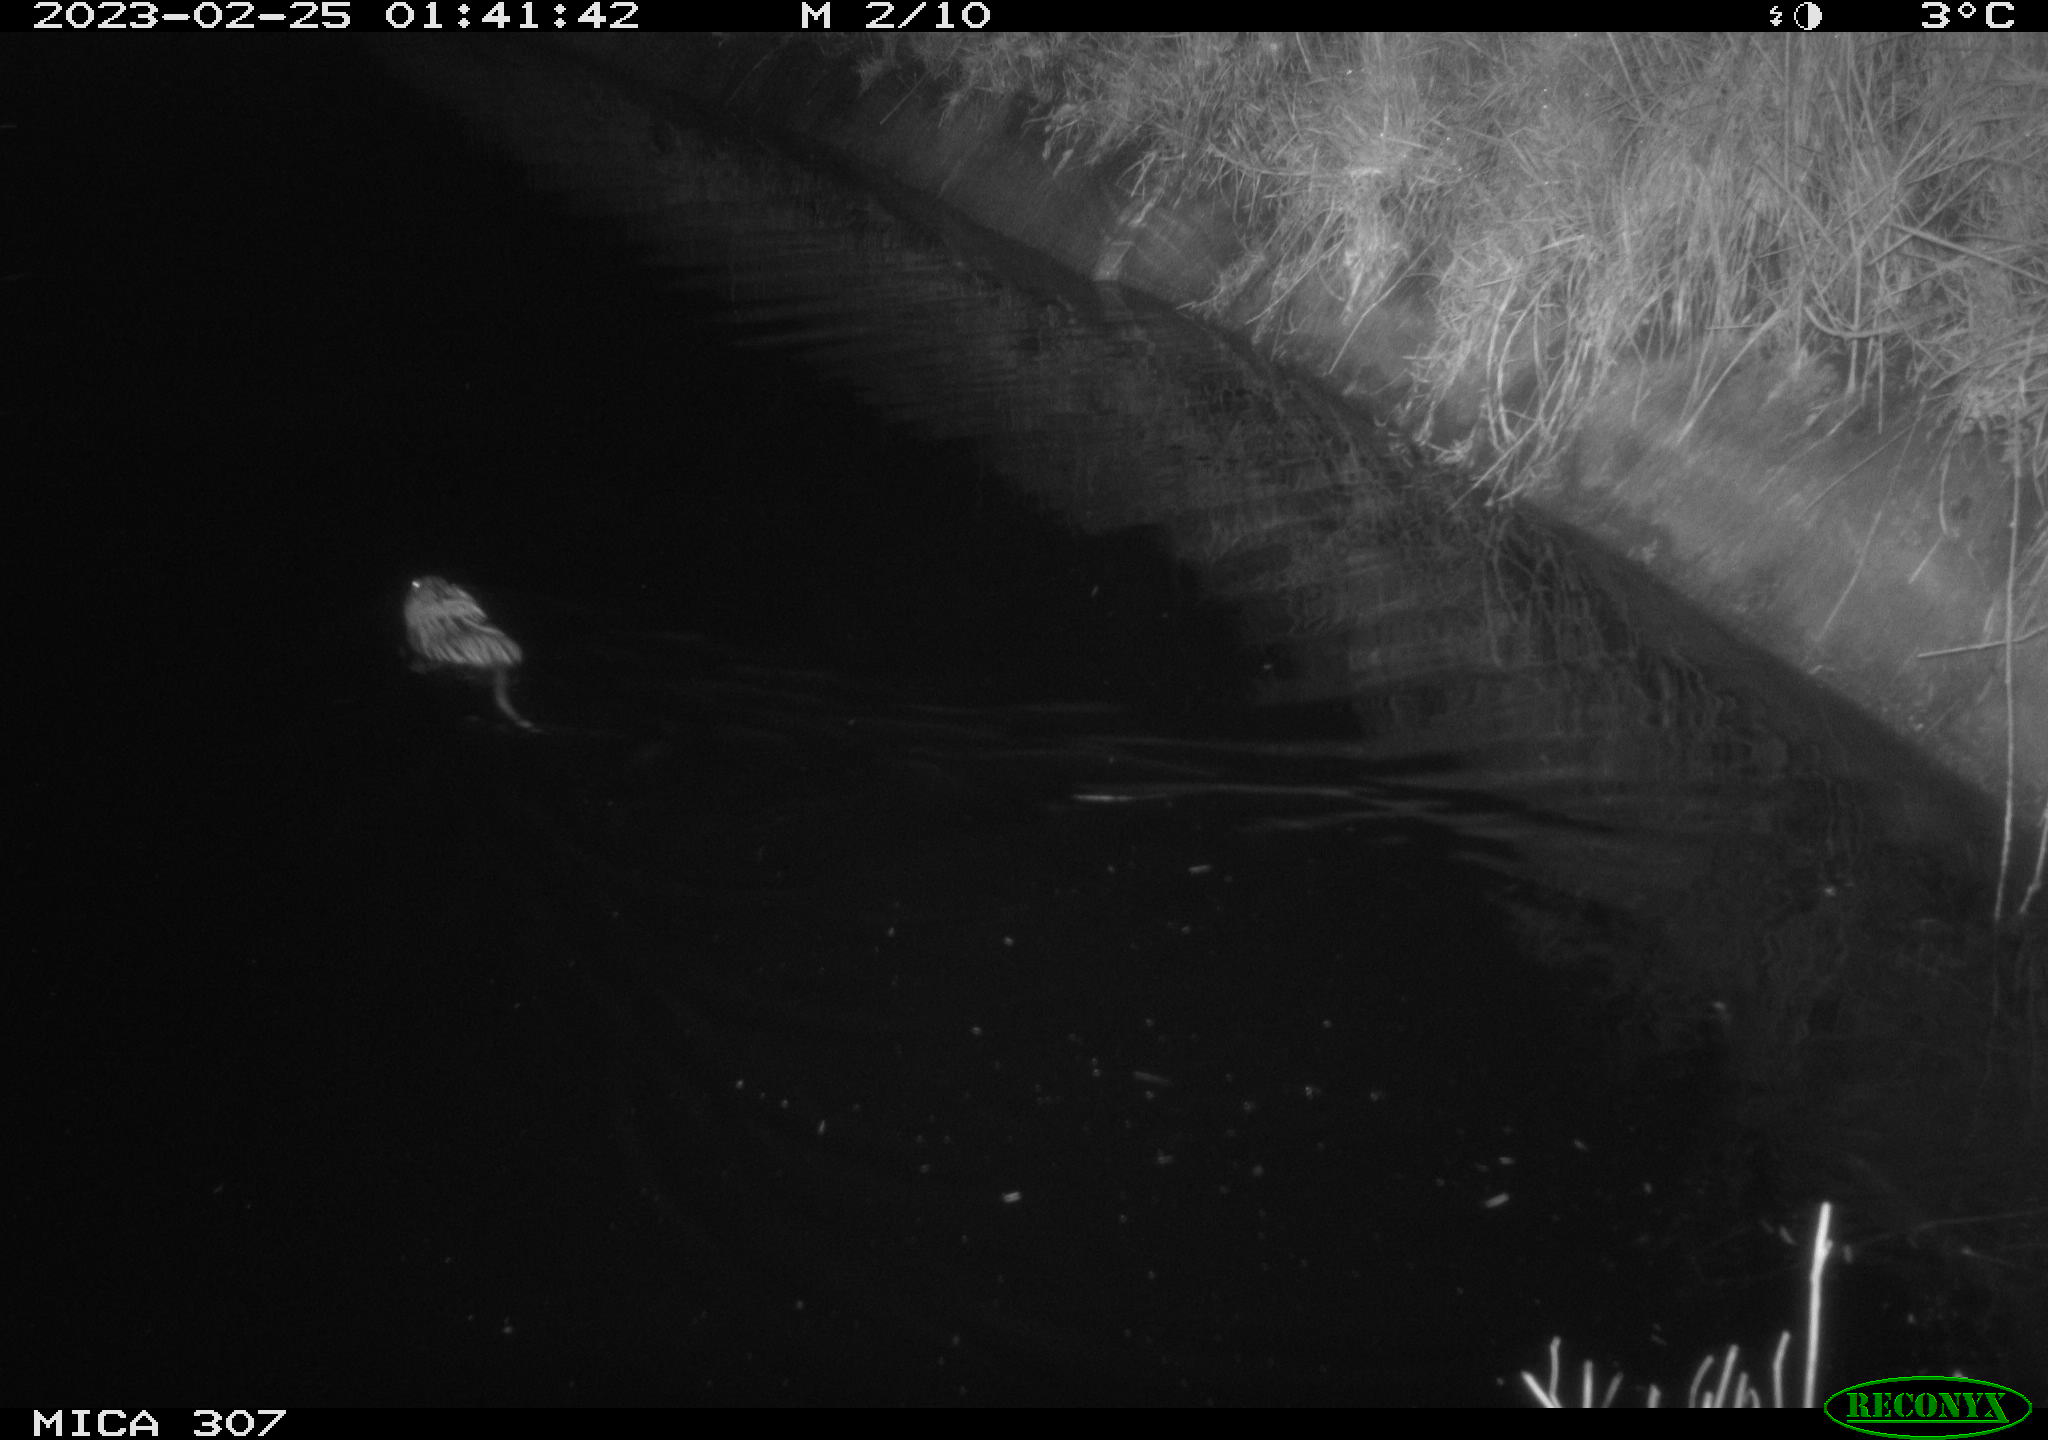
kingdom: Animalia
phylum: Chordata
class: Mammalia
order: Rodentia
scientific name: Rodentia
